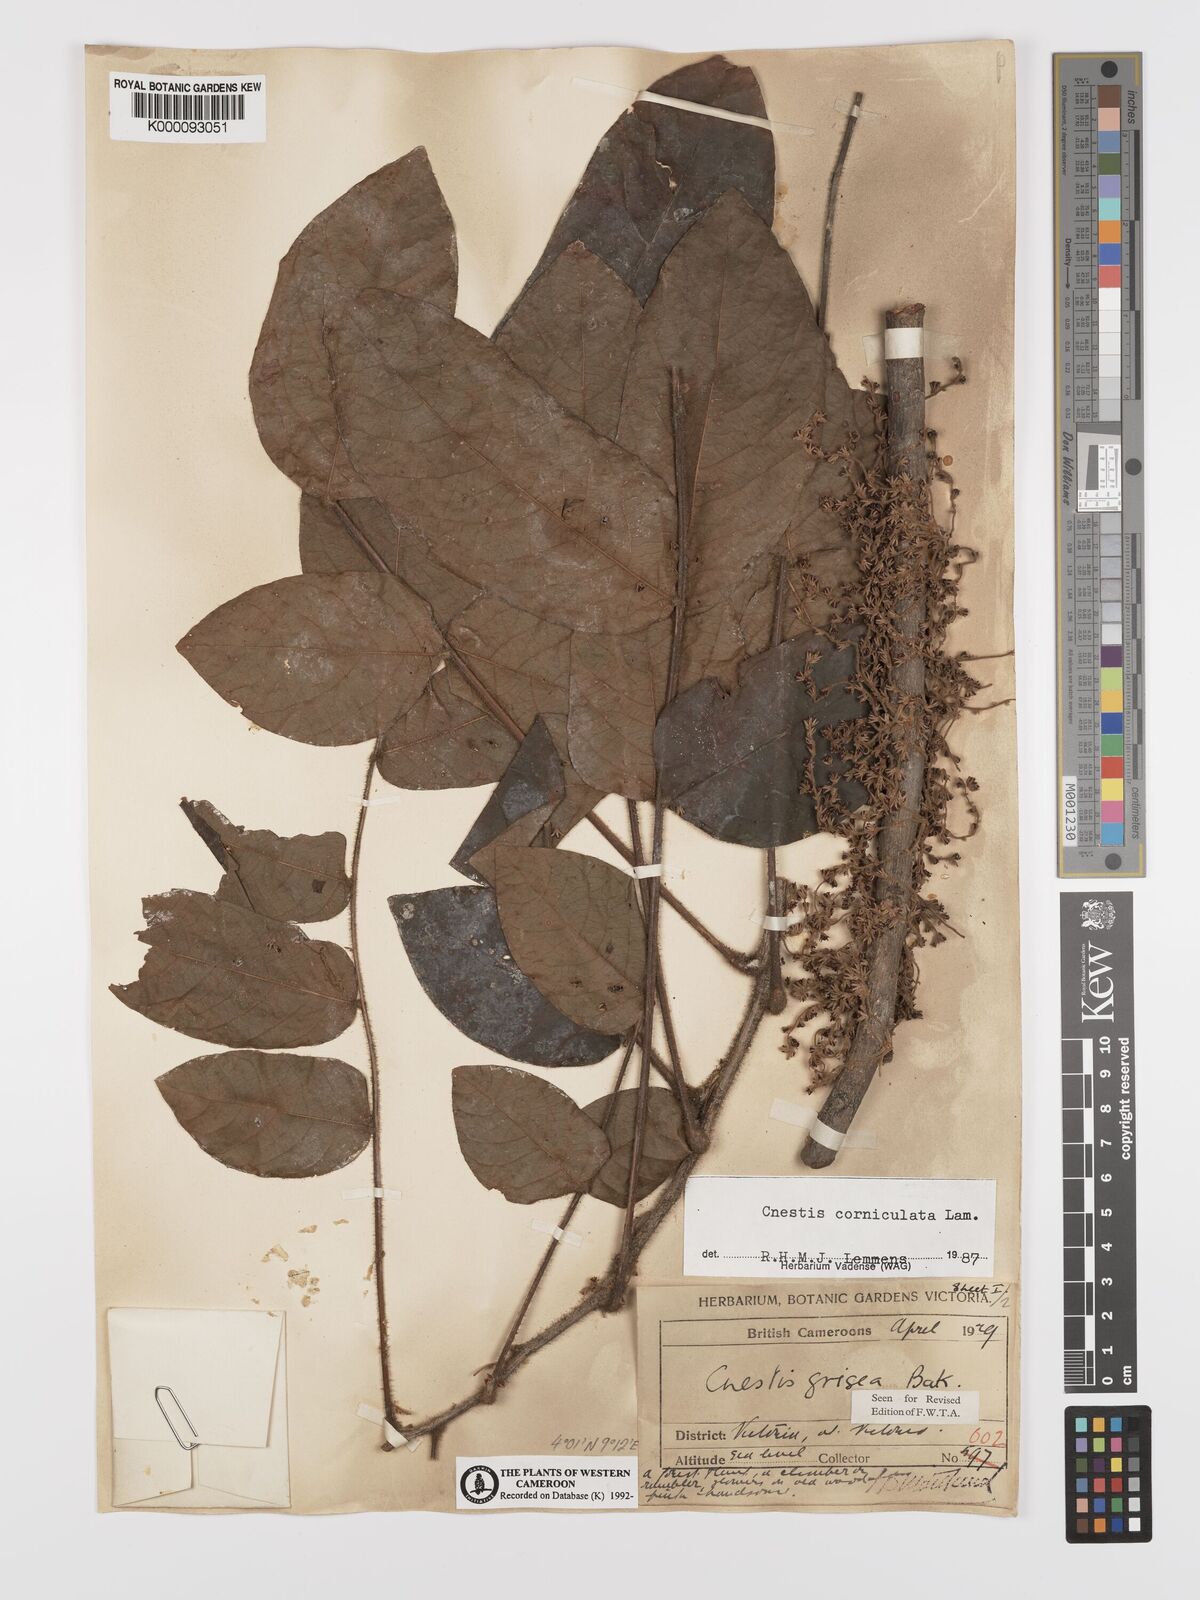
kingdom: Plantae
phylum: Tracheophyta
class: Magnoliopsida
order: Oxalidales
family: Connaraceae
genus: Cnestis
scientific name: Cnestis corniculata
